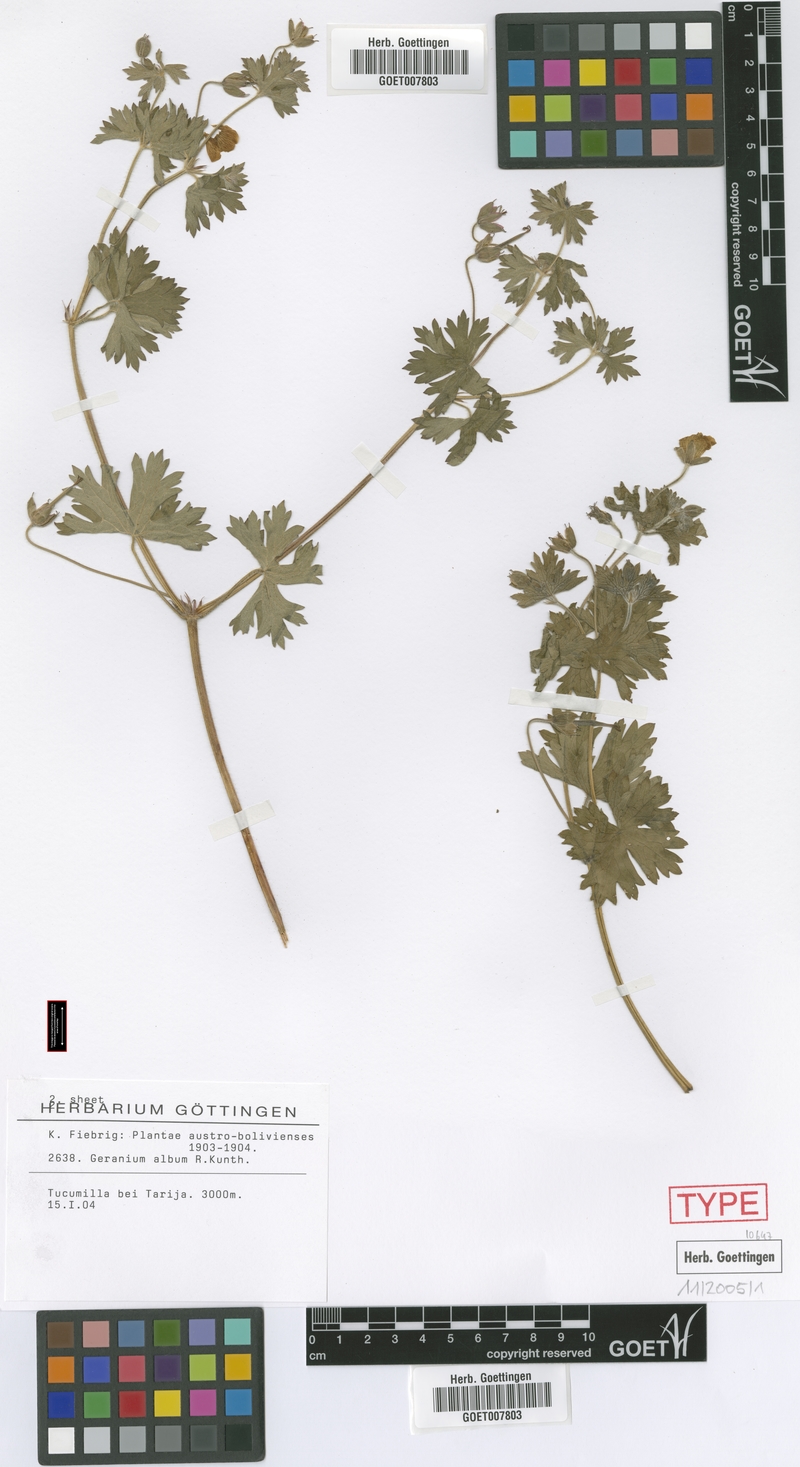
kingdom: Plantae
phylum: Tracheophyta
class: Magnoliopsida
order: Geraniales
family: Geraniaceae
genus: Geranium
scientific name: Geranium rupicola
